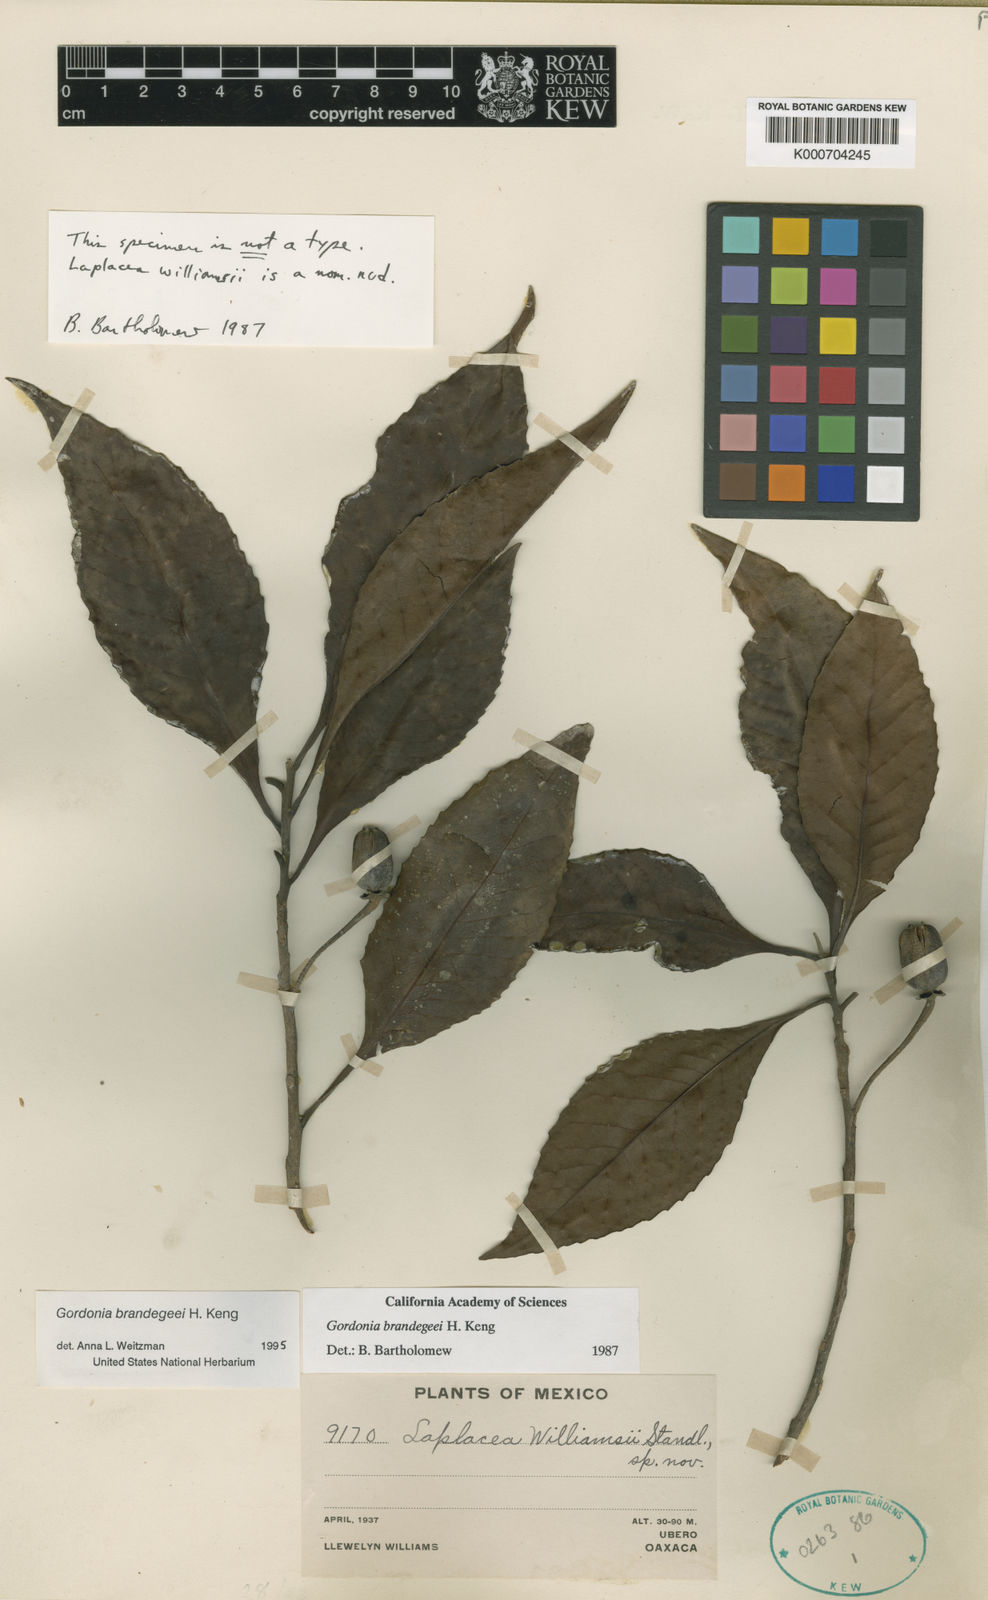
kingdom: Plantae
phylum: Tracheophyta
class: Magnoliopsida
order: Ericales
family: Theaceae
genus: Gordonia
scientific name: Gordonia brenesii
